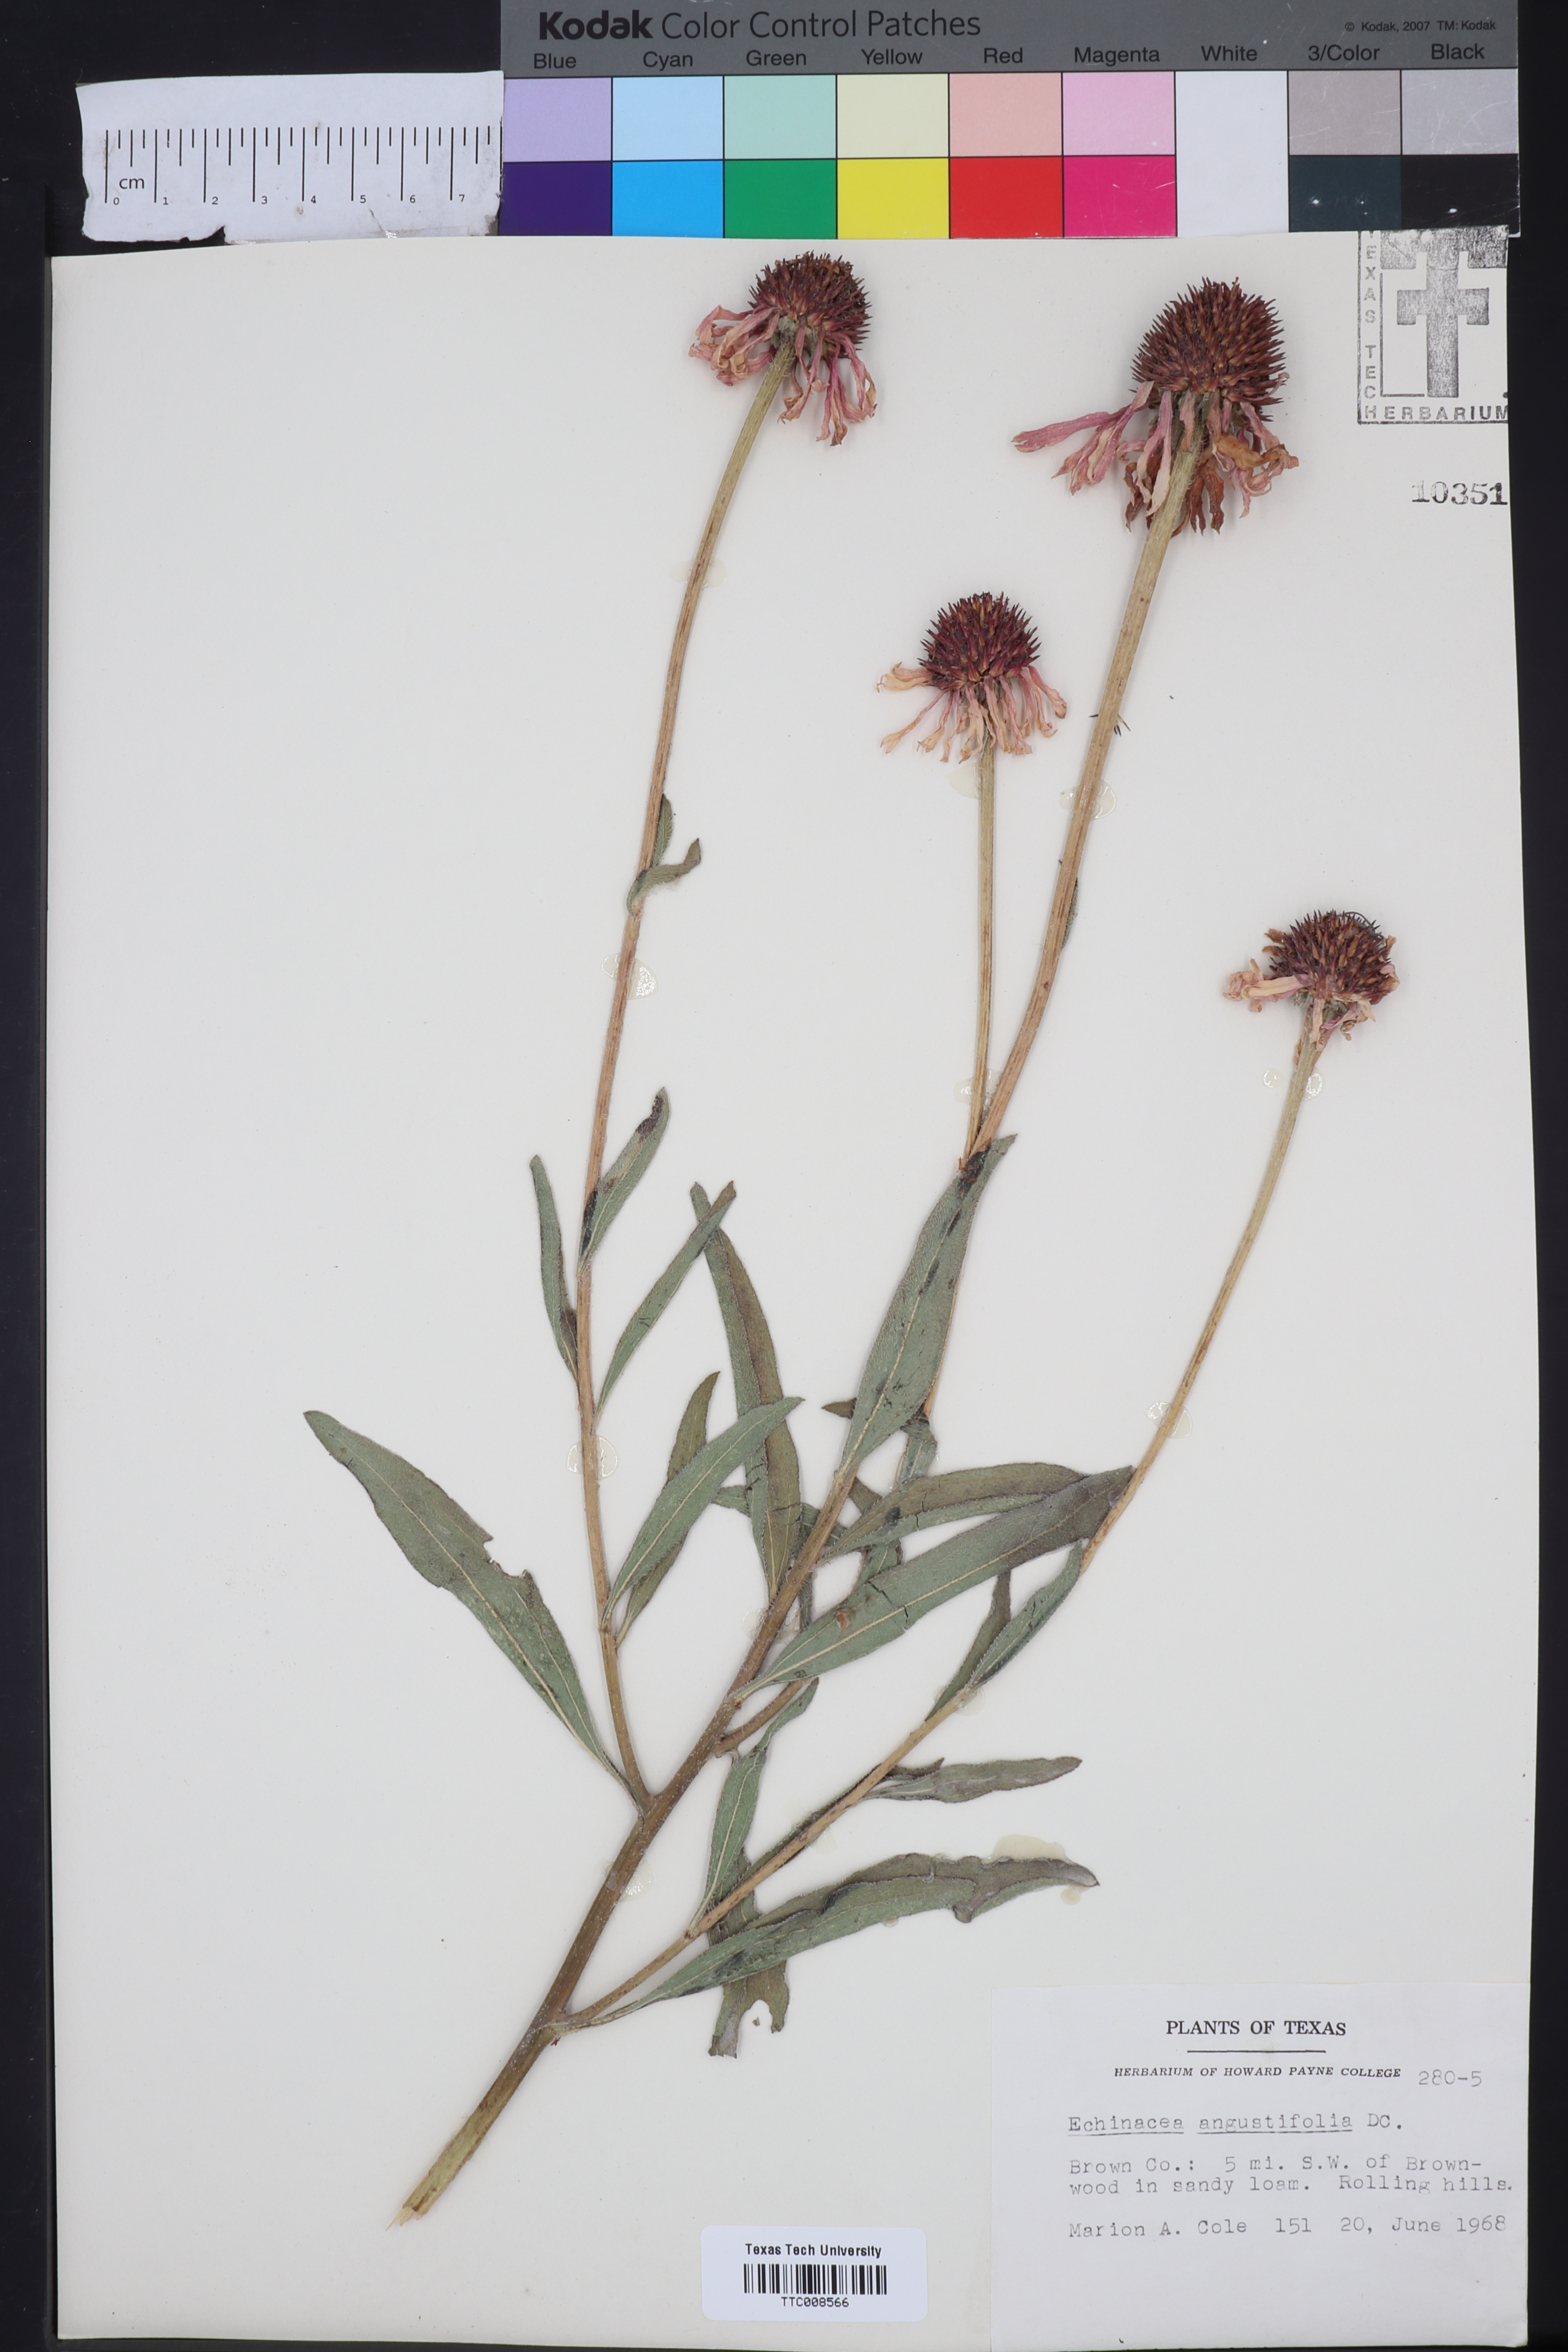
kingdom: Plantae
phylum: Tracheophyta
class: Magnoliopsida
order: Asterales
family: Asteraceae
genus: Echinacea
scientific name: Echinacea angustifolia
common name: Black-sampson echinacea
